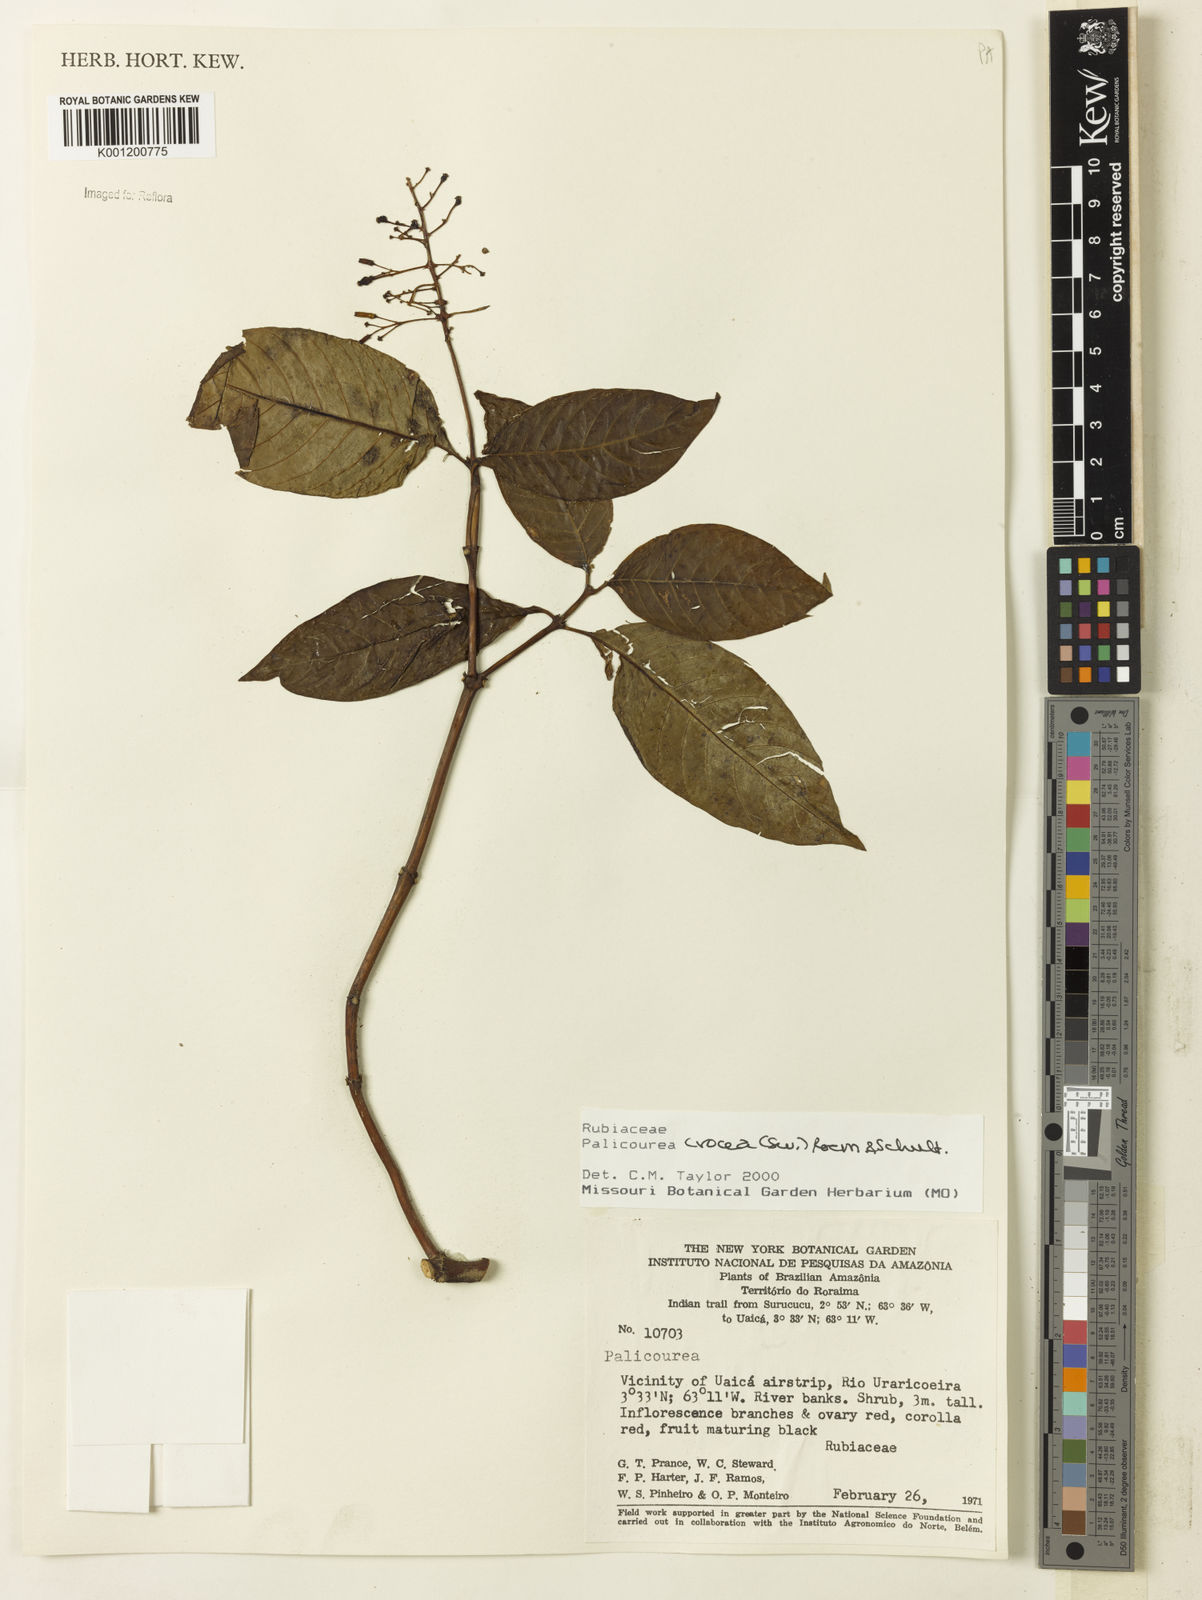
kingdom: Plantae
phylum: Tracheophyta
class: Magnoliopsida
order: Gentianales
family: Rubiaceae
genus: Palicourea
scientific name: Palicourea crocea
